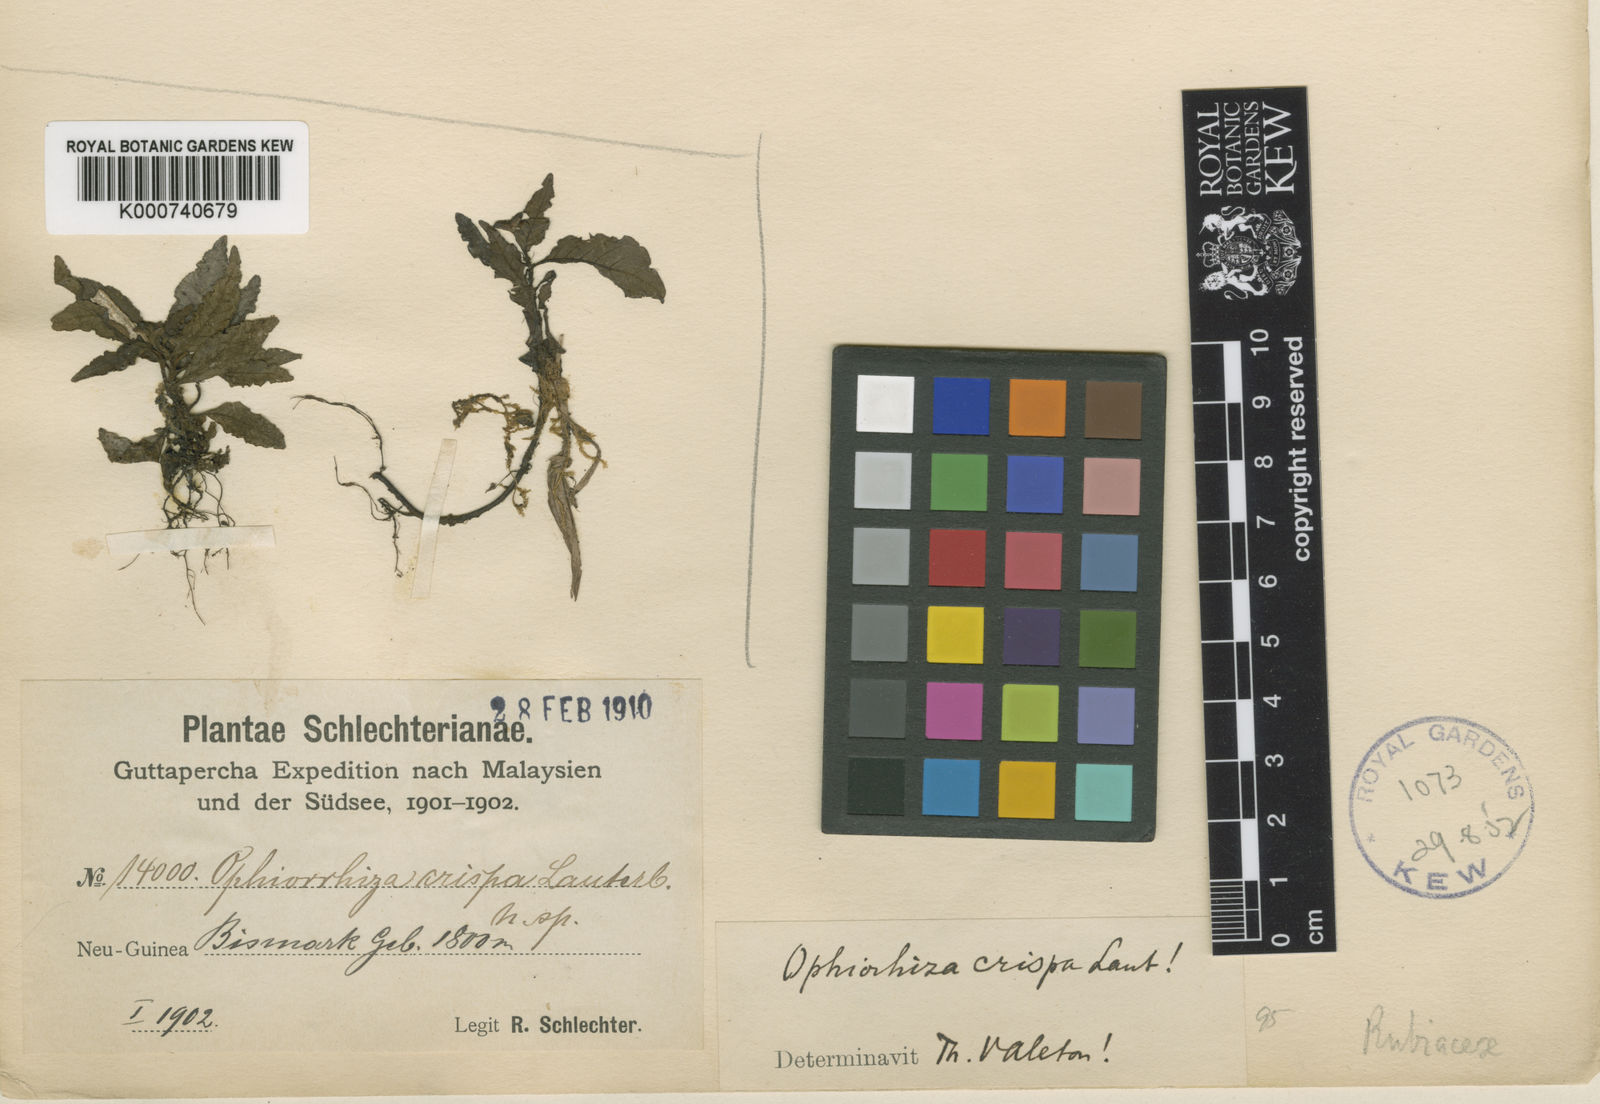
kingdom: Plantae
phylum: Tracheophyta
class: Magnoliopsida
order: Gentianales
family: Rubiaceae
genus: Ophiorrhiza
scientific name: Ophiorrhiza crispa
